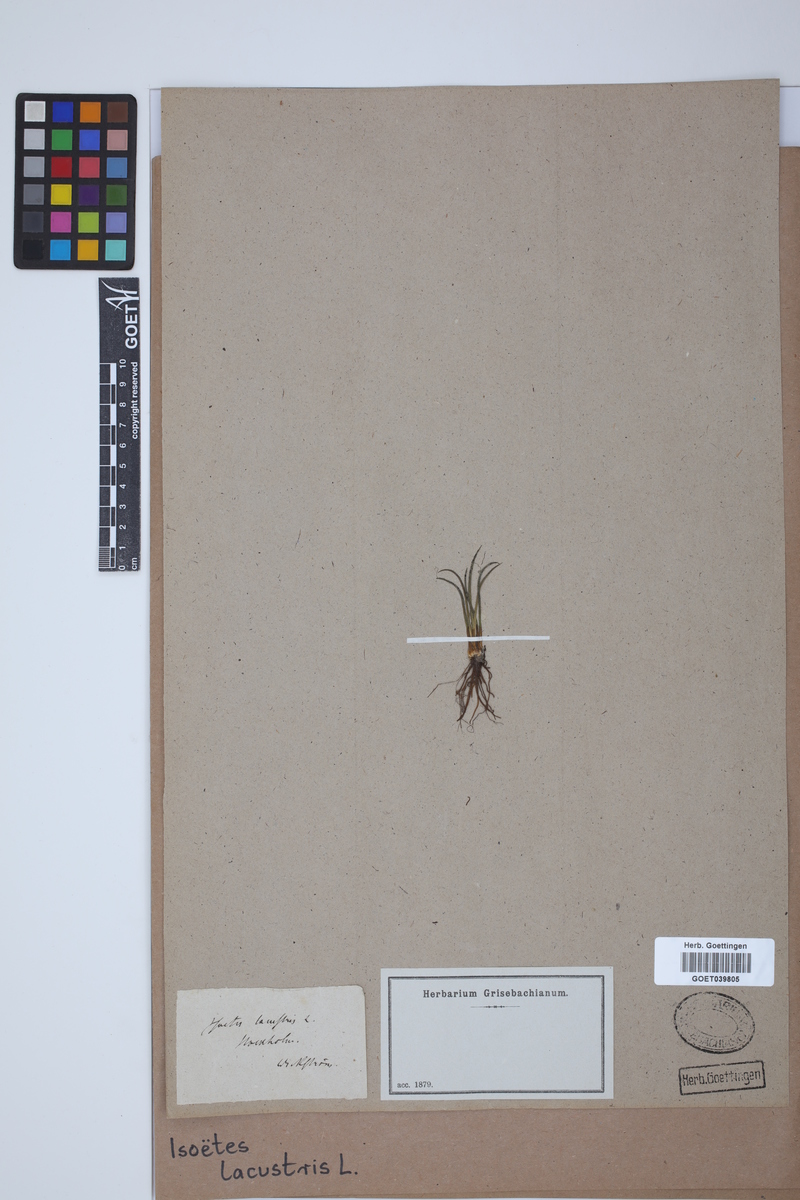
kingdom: Plantae
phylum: Tracheophyta
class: Lycopodiopsida
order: Isoetales
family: Isoetaceae
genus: Isoetes
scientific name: Isoetes lacustris
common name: Common quillwort
